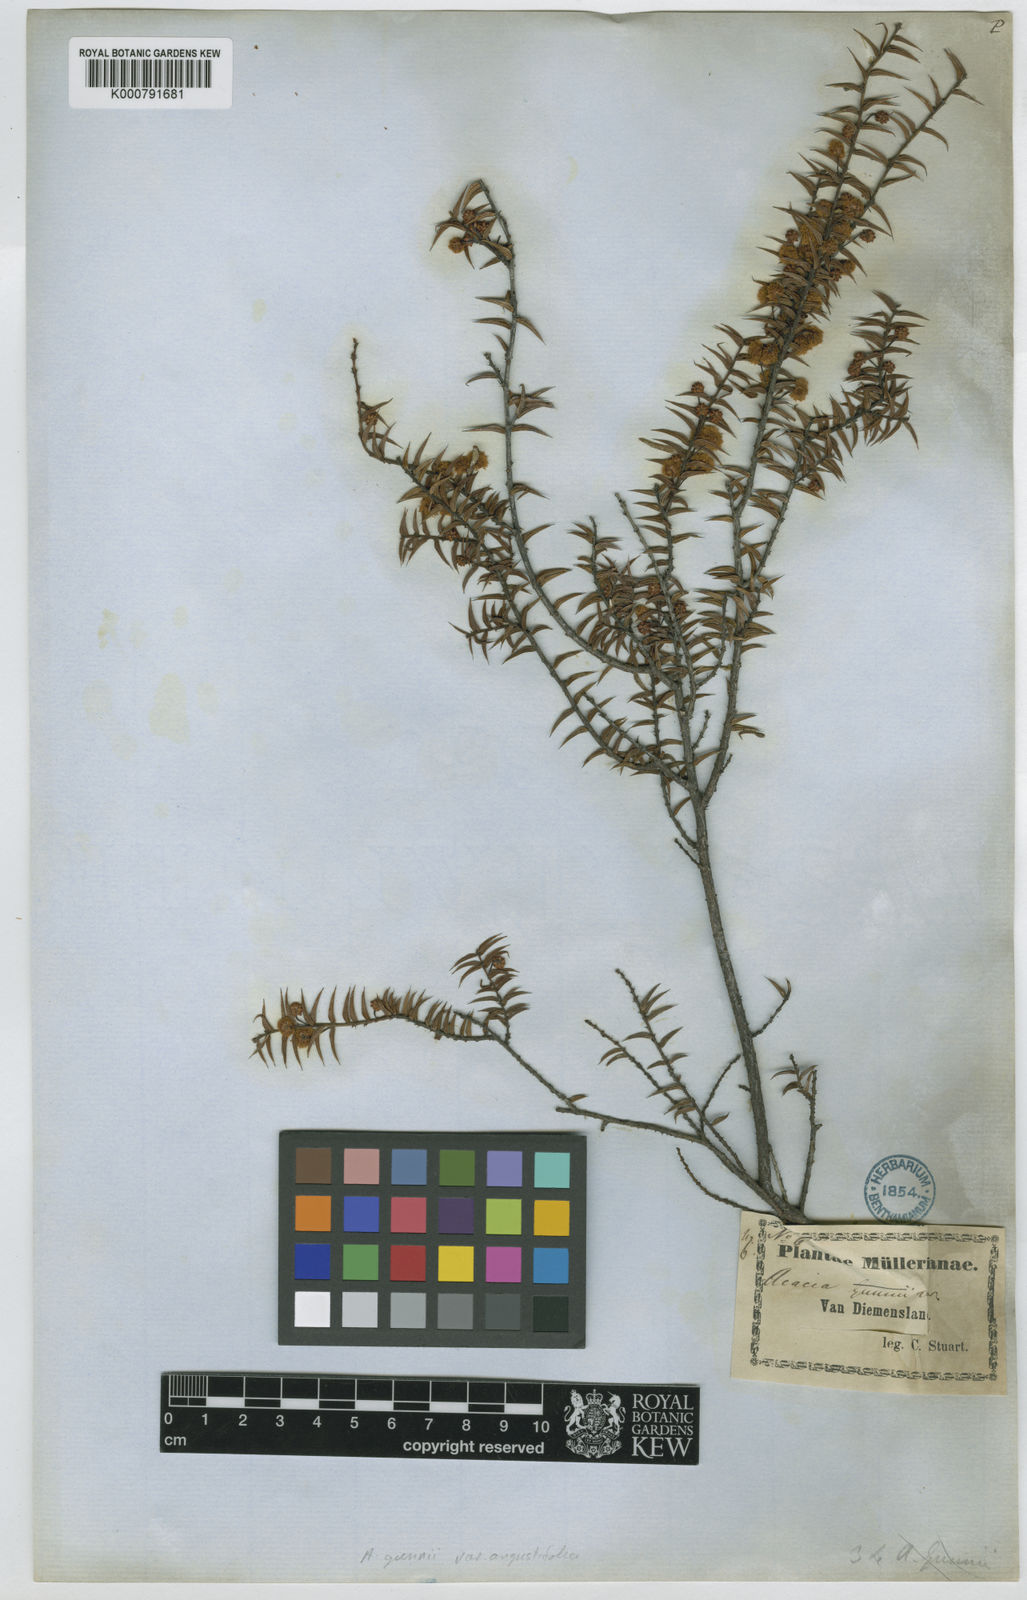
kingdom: Plantae
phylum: Tracheophyta
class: Magnoliopsida
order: Fabales
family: Fabaceae
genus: Acacia
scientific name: Acacia gunnii
